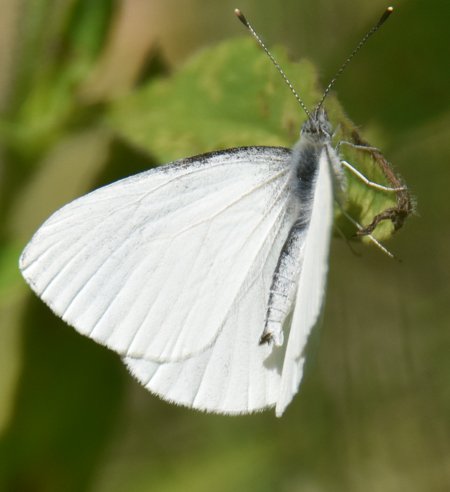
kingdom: Animalia
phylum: Arthropoda
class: Insecta
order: Lepidoptera
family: Pieridae
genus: Pieris
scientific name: Pieris oleracea
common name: Mustard White
